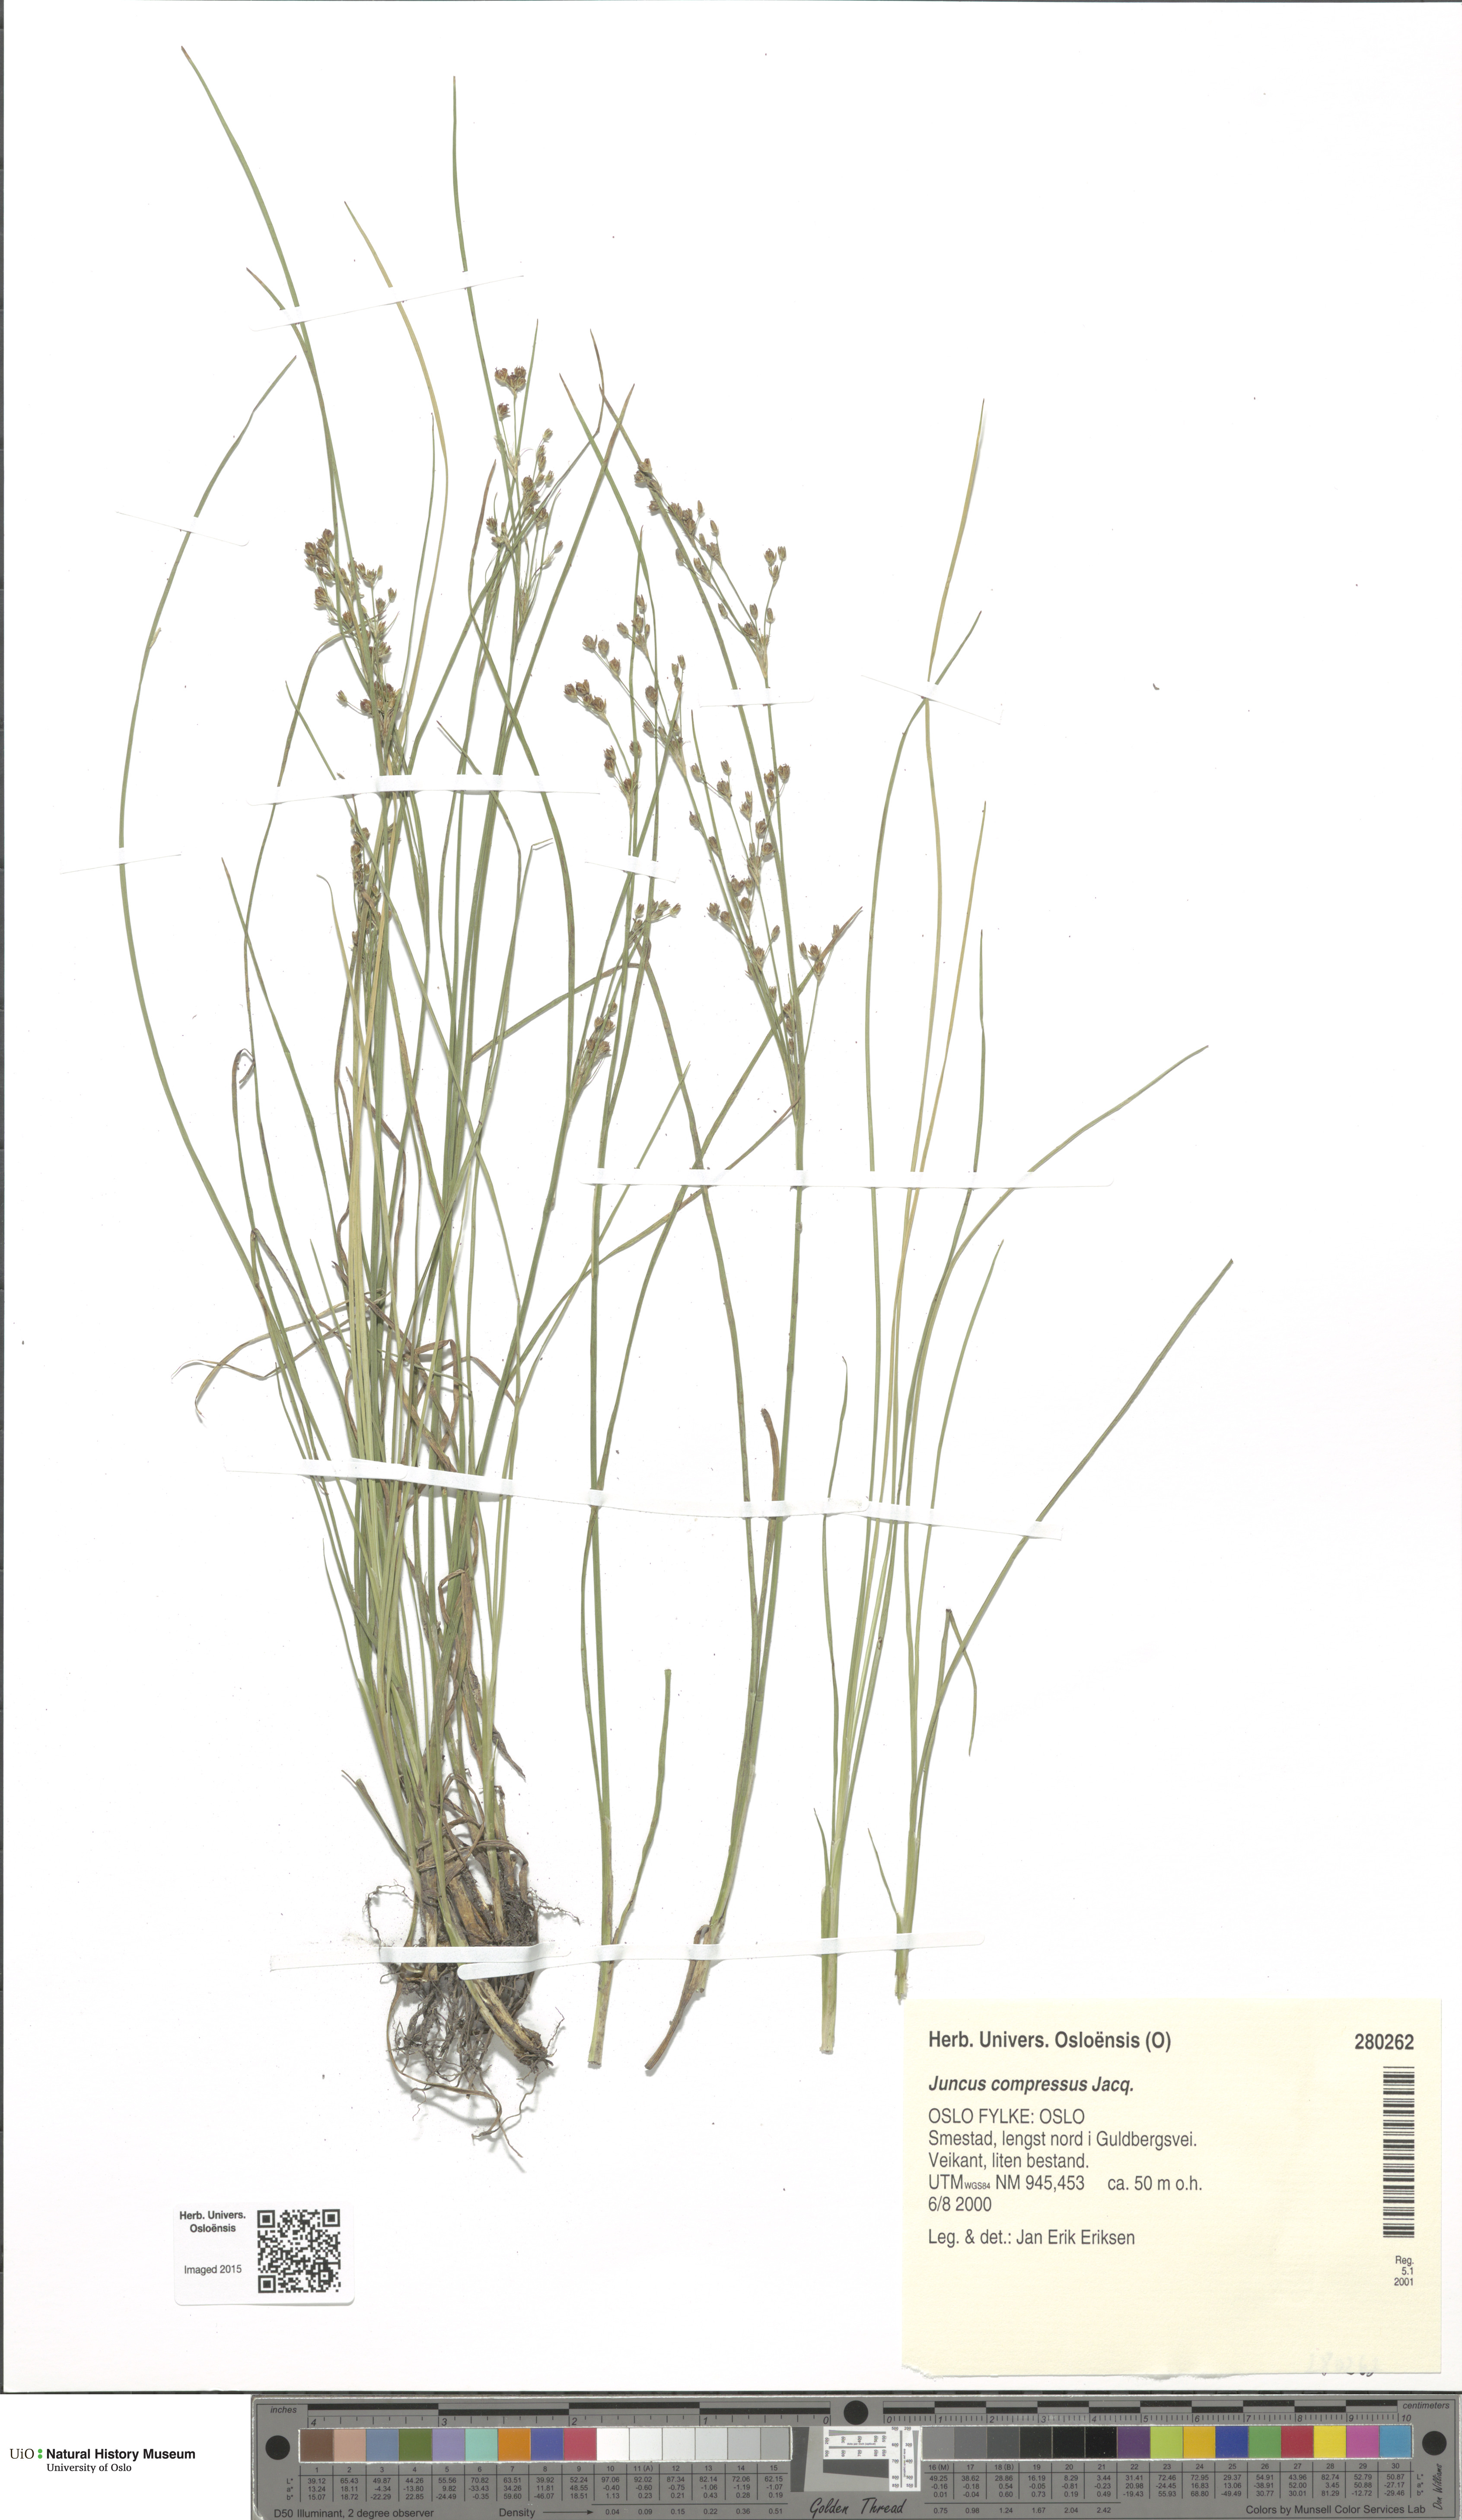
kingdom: Plantae
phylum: Tracheophyta
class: Liliopsida
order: Poales
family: Juncaceae
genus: Juncus
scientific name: Juncus compressus
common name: Round-fruited rush
